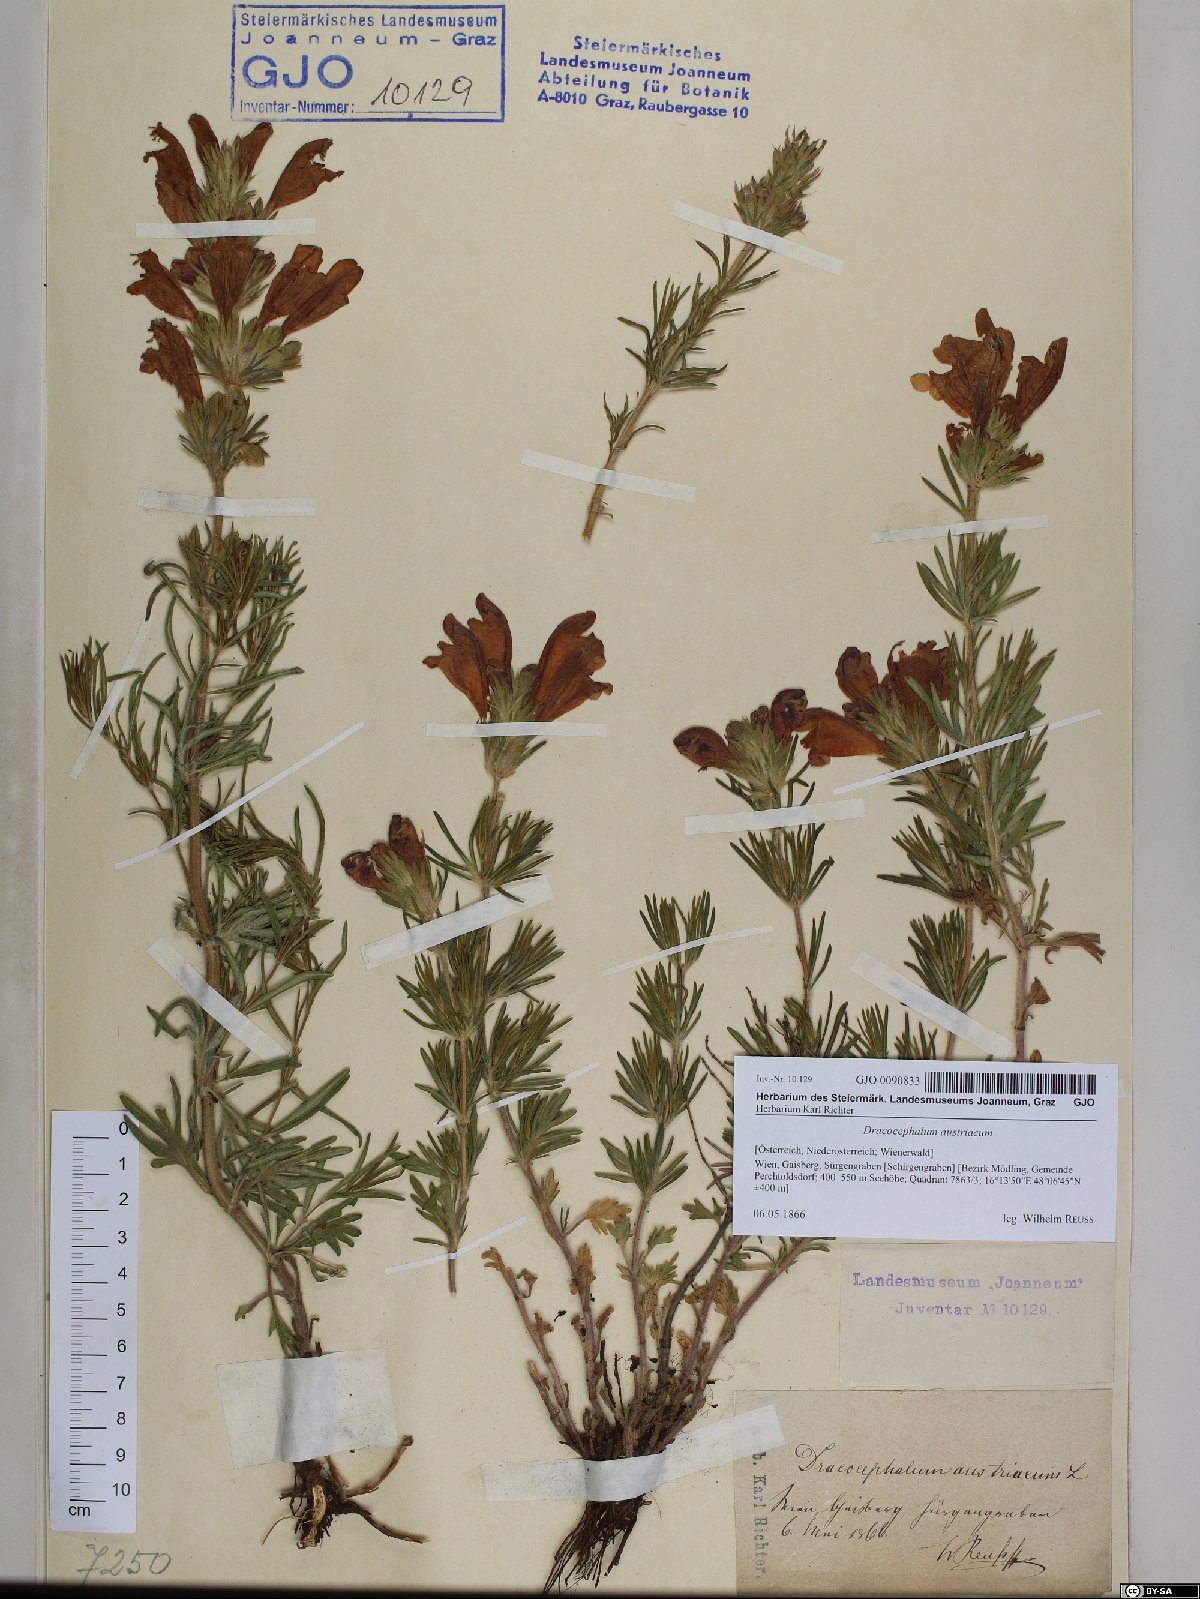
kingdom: Plantae
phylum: Tracheophyta
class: Magnoliopsida
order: Lamiales
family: Lamiaceae
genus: Dracocephalum
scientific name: Dracocephalum austriacum
